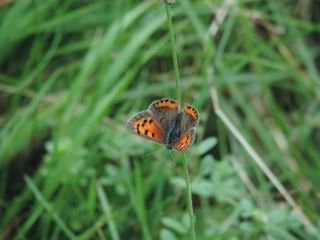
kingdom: Animalia
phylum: Arthropoda
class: Insecta
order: Lepidoptera
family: Lycaenidae
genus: Lycaena
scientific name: Lycaena phlaeas
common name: American Copper
